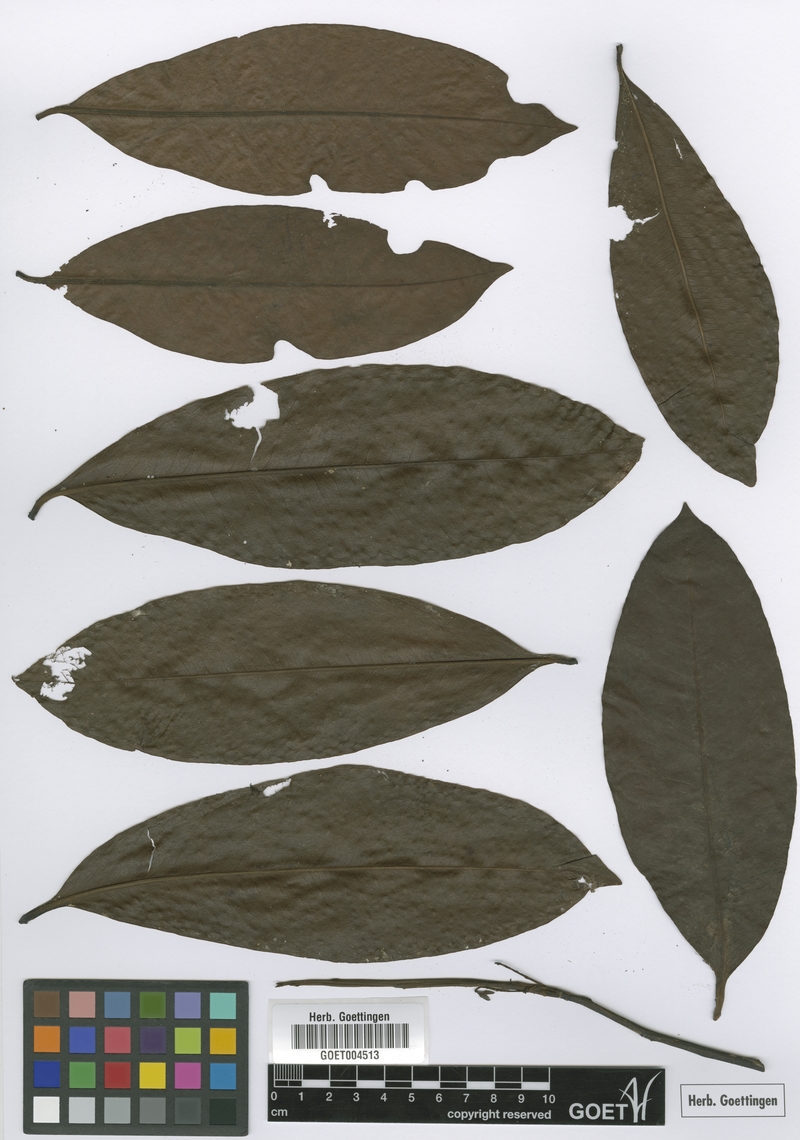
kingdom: Plantae
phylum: Tracheophyta
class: Magnoliopsida
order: Ericales
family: Primulaceae
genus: Stylogyne
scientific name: Stylogyne atra
